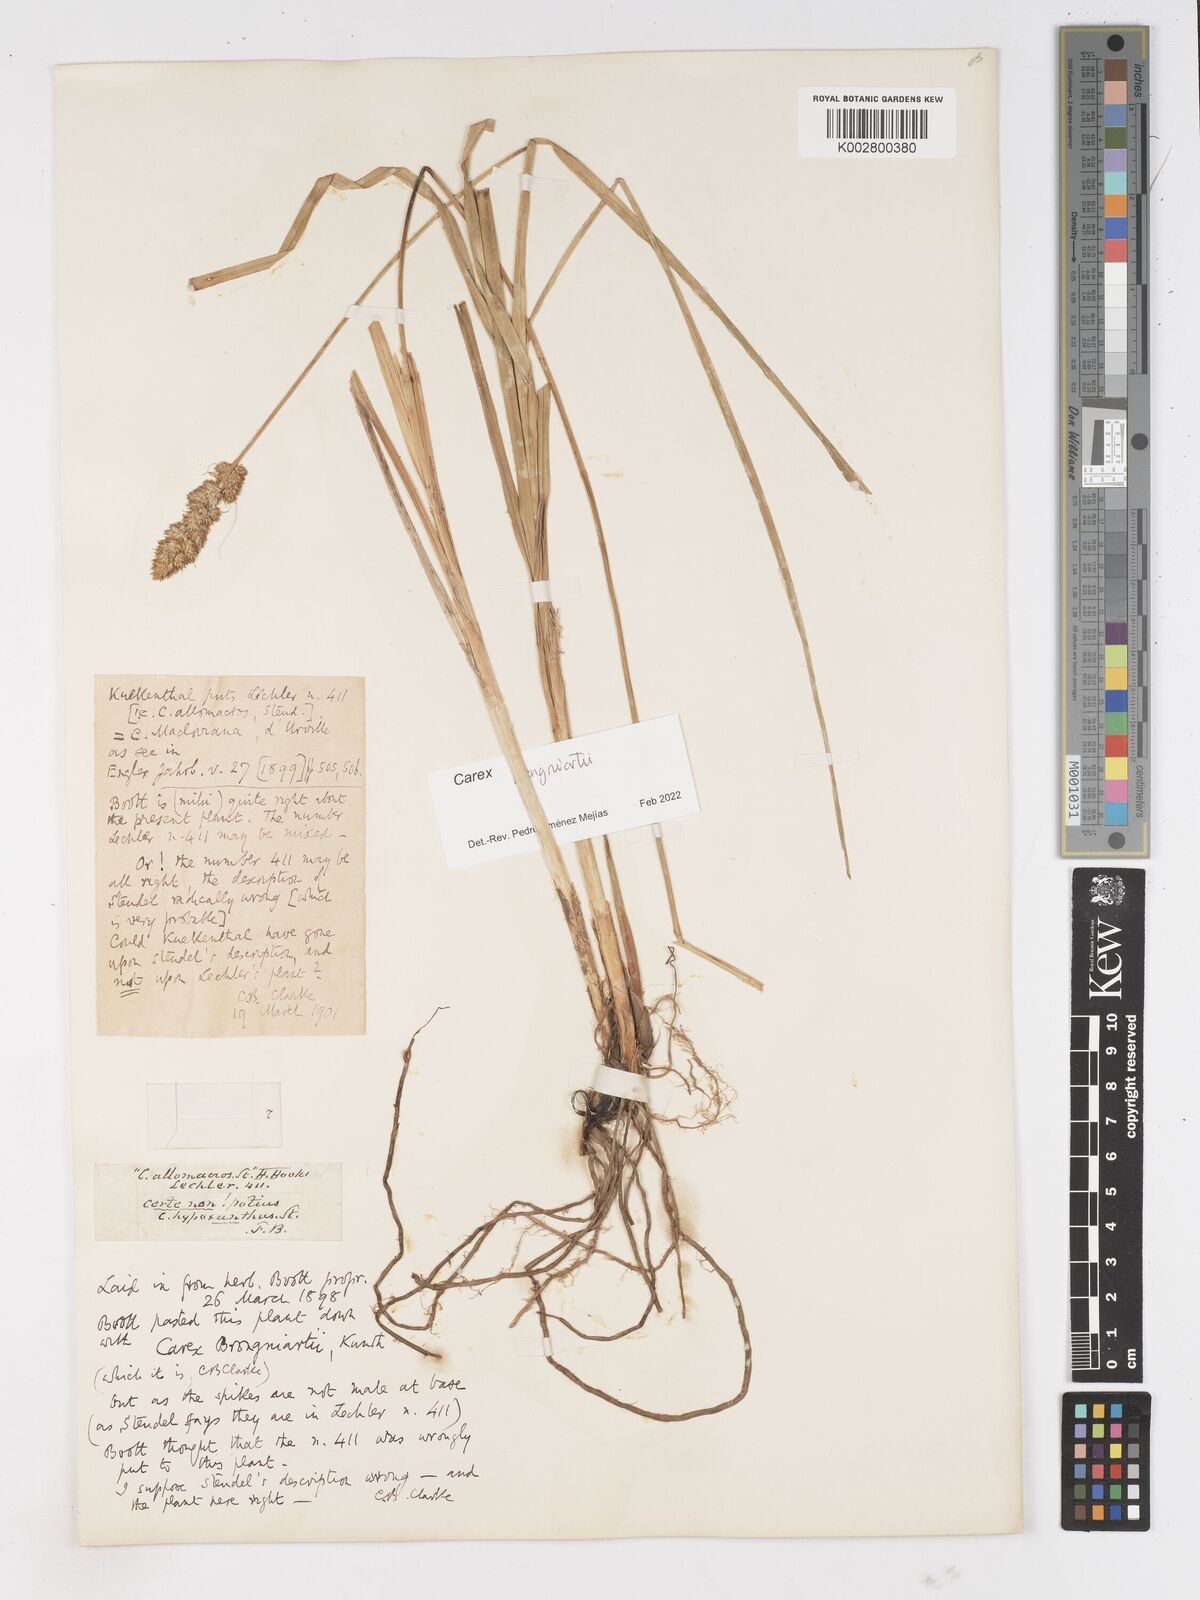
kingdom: Plantae
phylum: Tracheophyta
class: Liliopsida
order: Poales
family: Cyperaceae
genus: Carex
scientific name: Carex brongniartii
